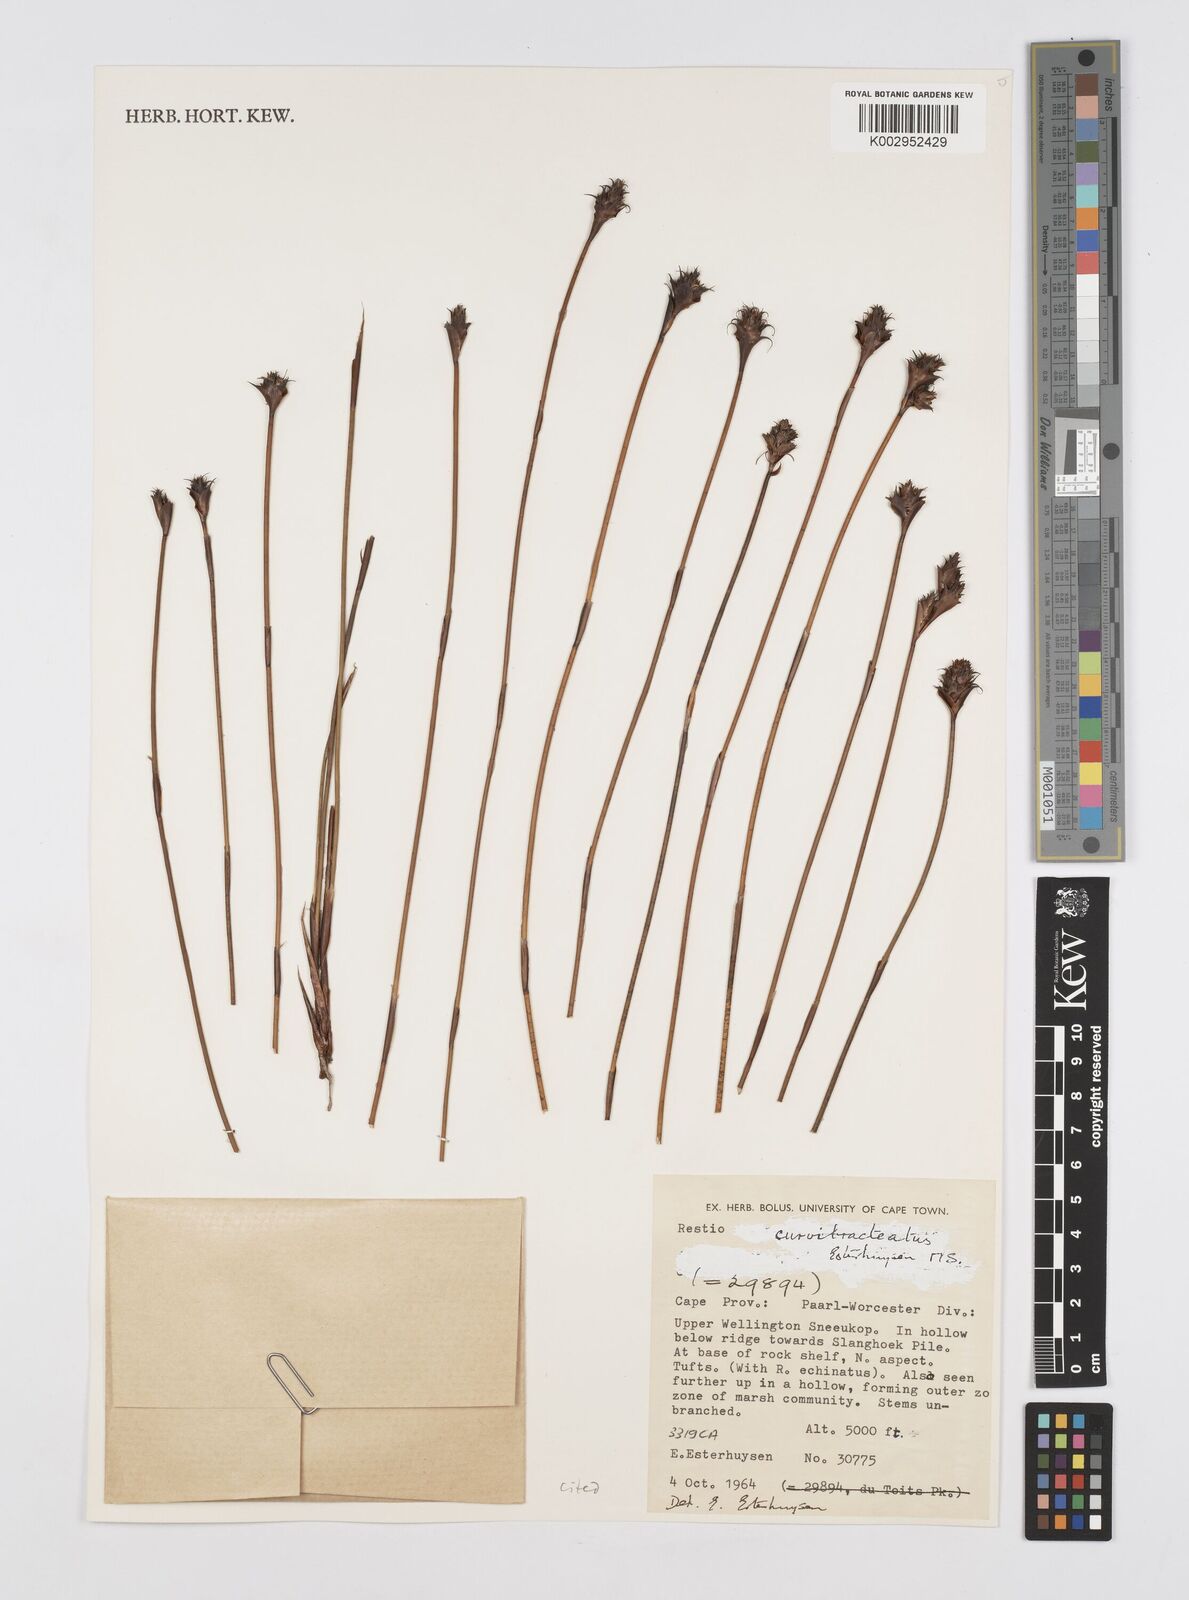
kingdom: Plantae
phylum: Tracheophyta
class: Liliopsida
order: Poales
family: Restionaceae
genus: Restio
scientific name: Restio curvibracteatus
